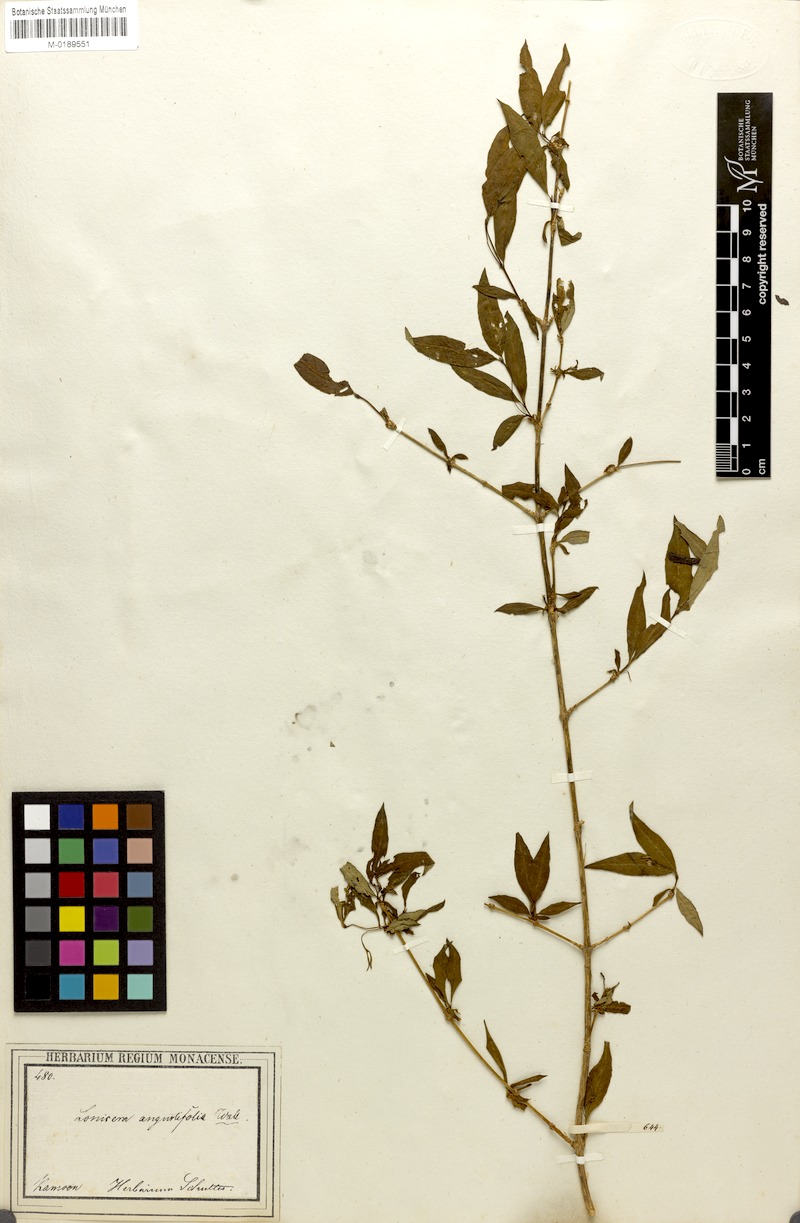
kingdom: Plantae
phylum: Tracheophyta
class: Magnoliopsida
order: Dipsacales
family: Caprifoliaceae
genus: Lonicera
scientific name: Lonicera angustifolia
